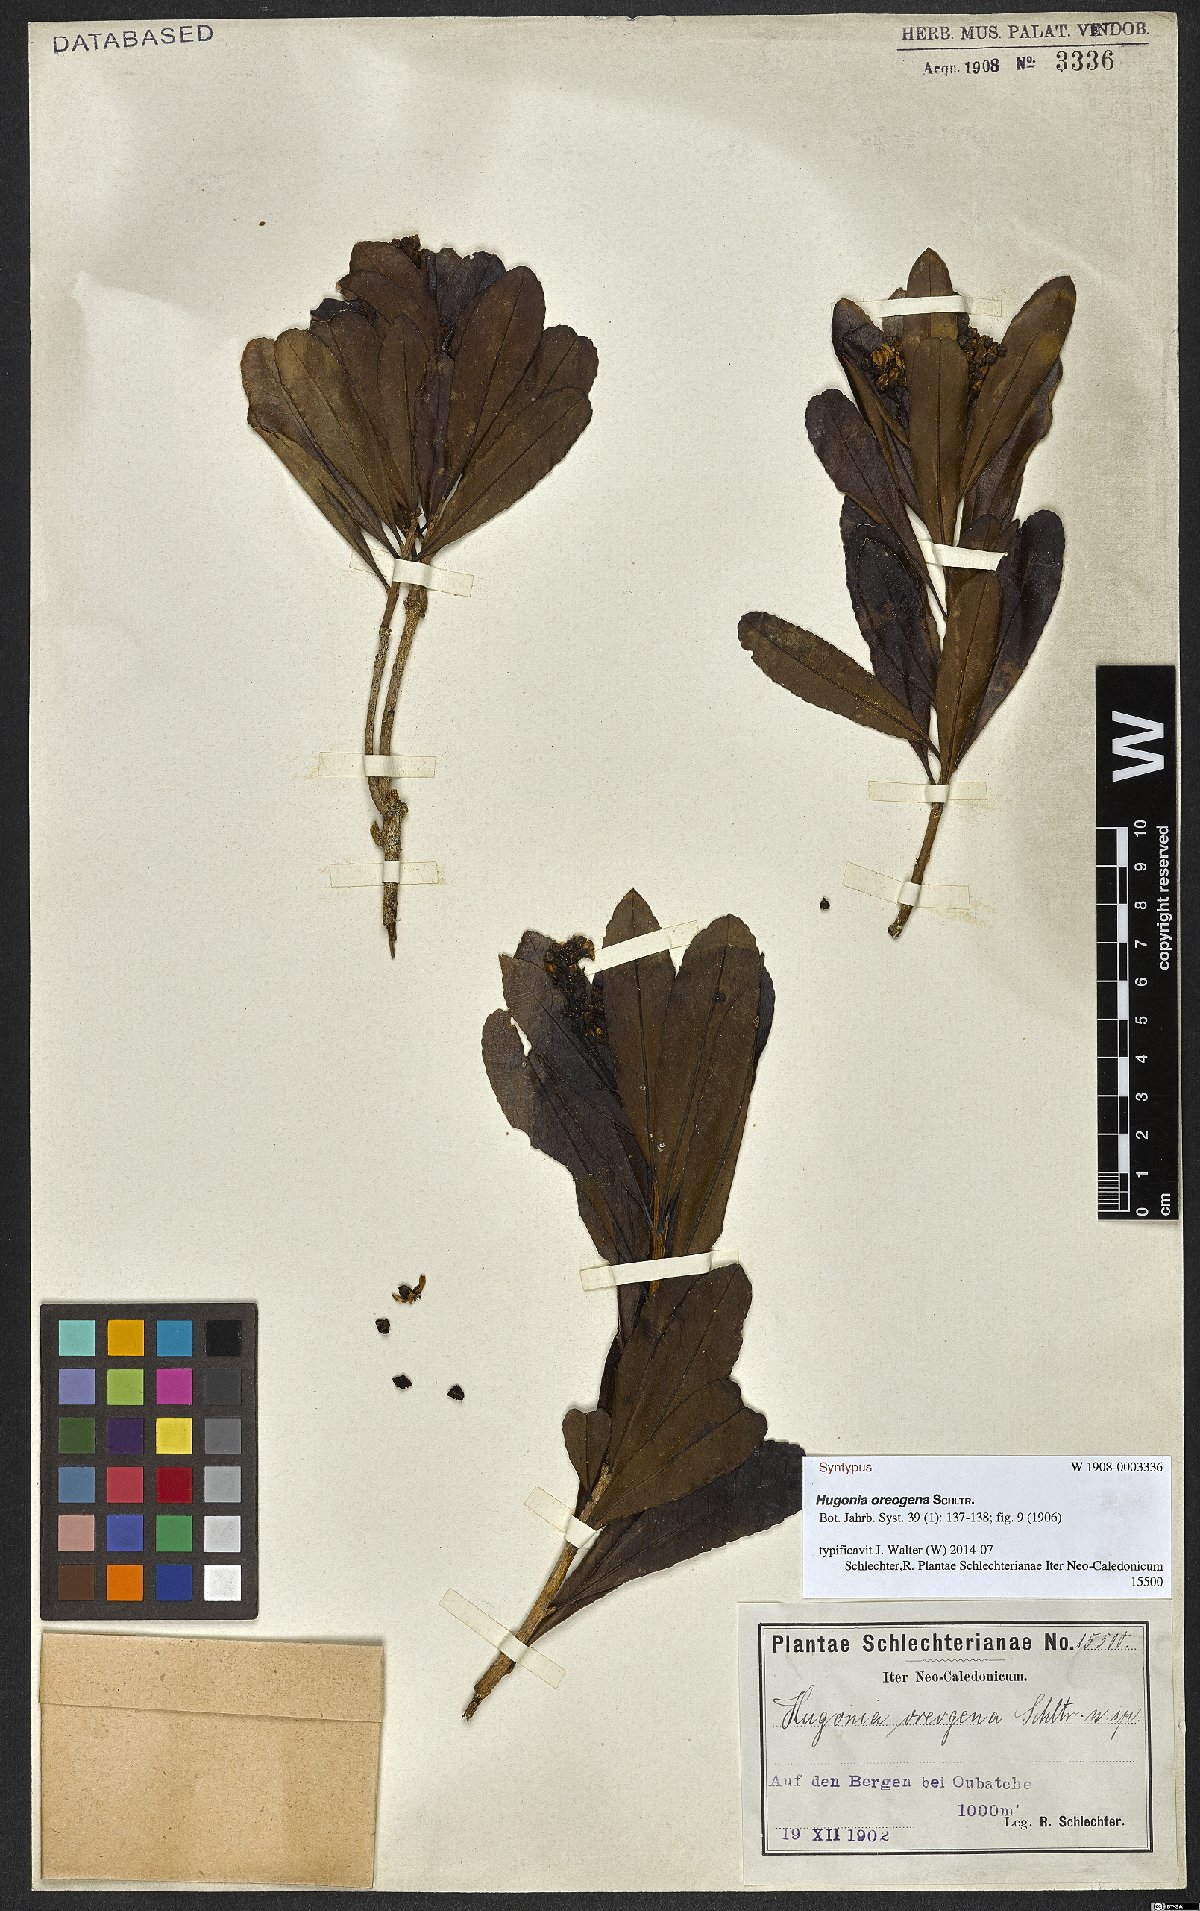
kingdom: Plantae
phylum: Tracheophyta
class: Magnoliopsida
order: Malpighiales
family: Linaceae
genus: Durandea
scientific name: Durandea oreogena
